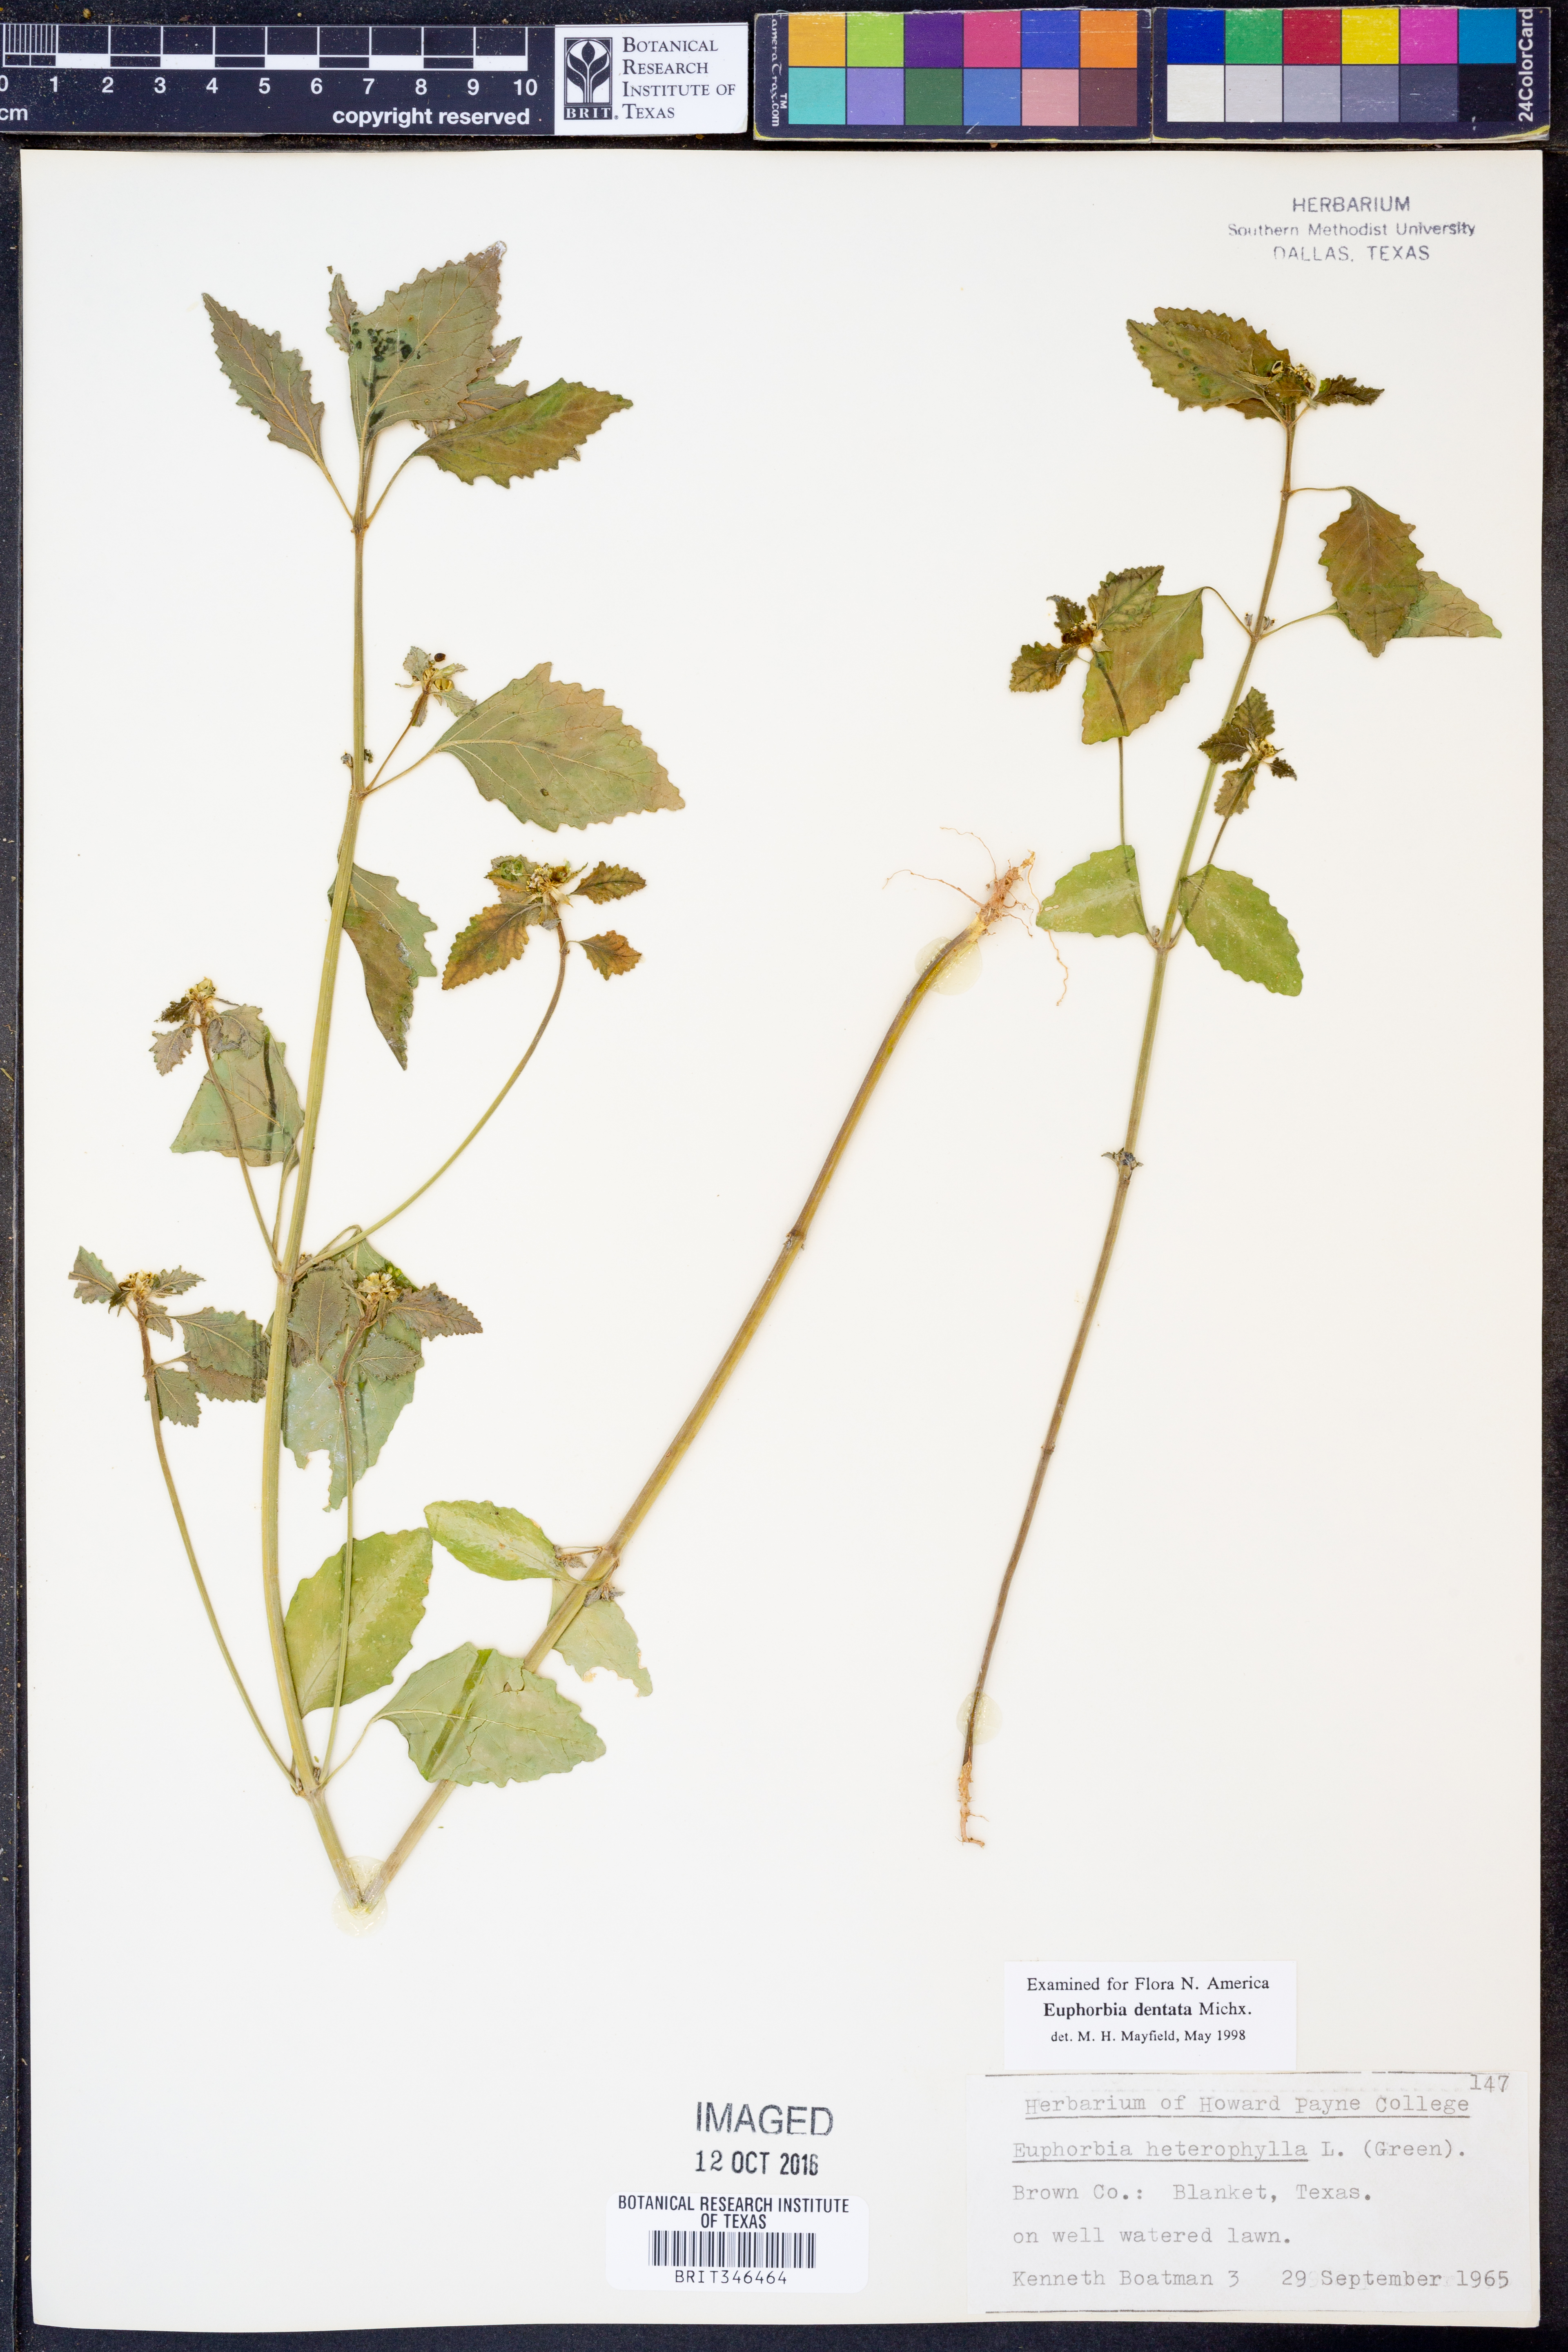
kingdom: Plantae
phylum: Tracheophyta
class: Magnoliopsida
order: Malpighiales
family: Euphorbiaceae
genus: Euphorbia
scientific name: Euphorbia dentata
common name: Dentate spurge
